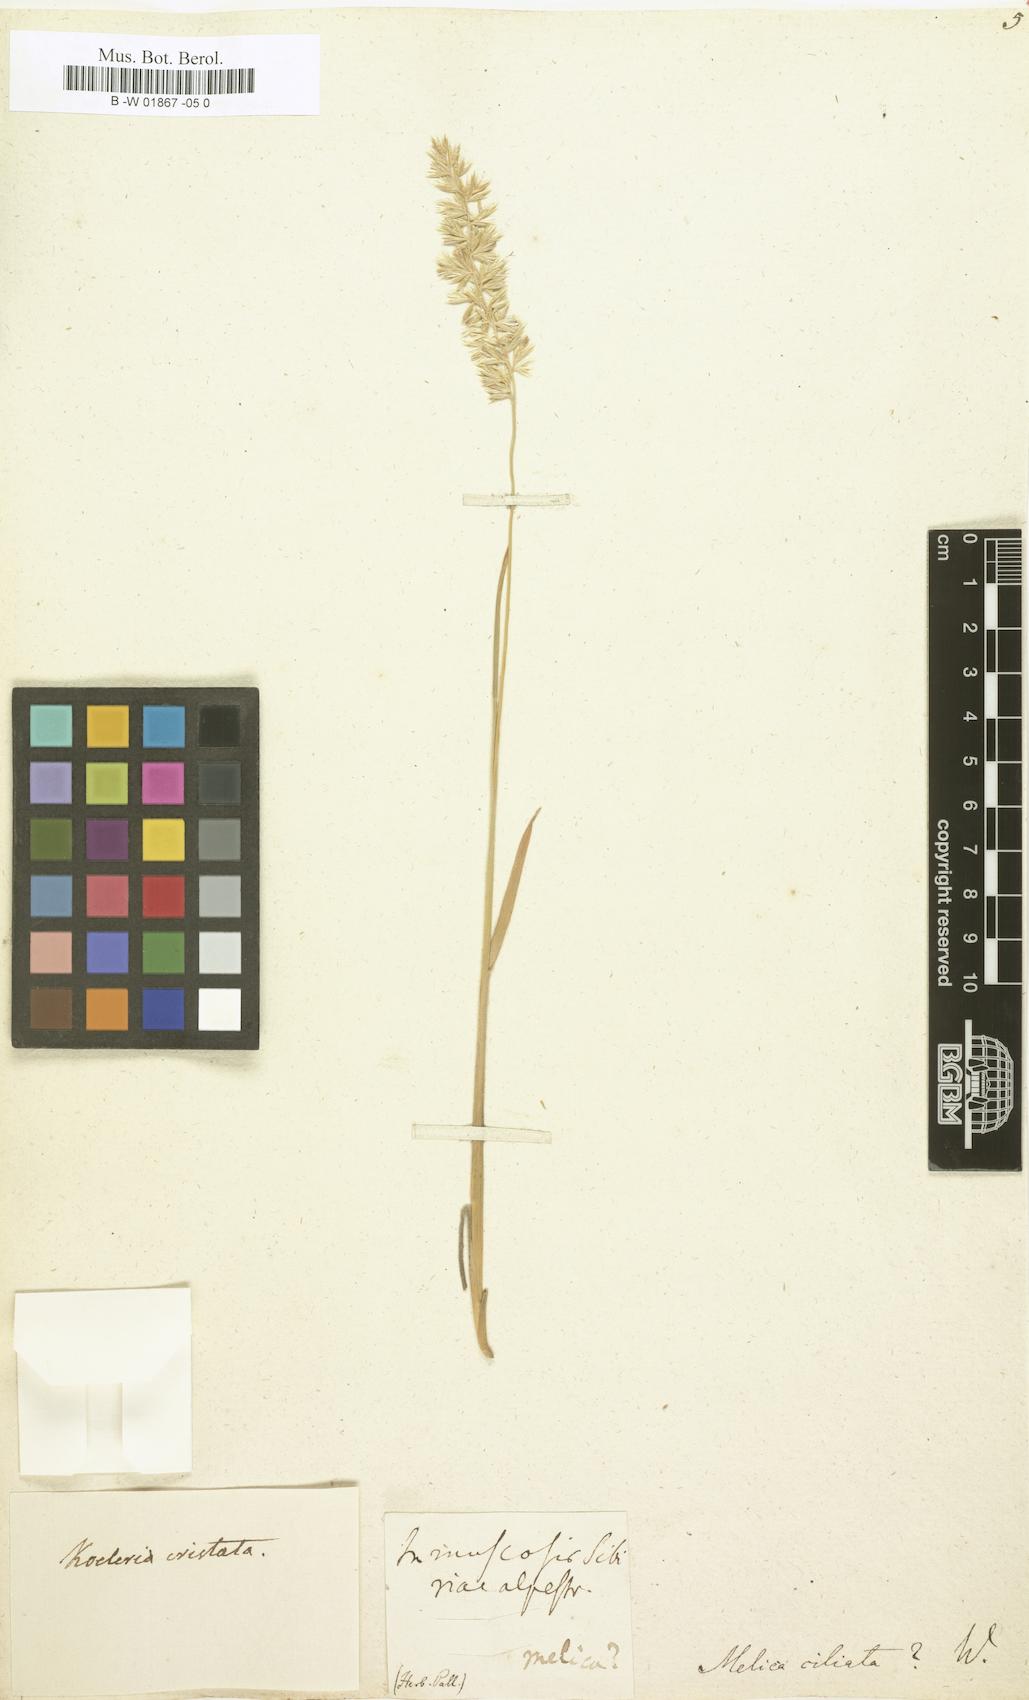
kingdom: Plantae
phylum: Tracheophyta
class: Liliopsida
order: Poales
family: Poaceae
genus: Melica
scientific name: Melica ciliata
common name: Hairy melicgrass
